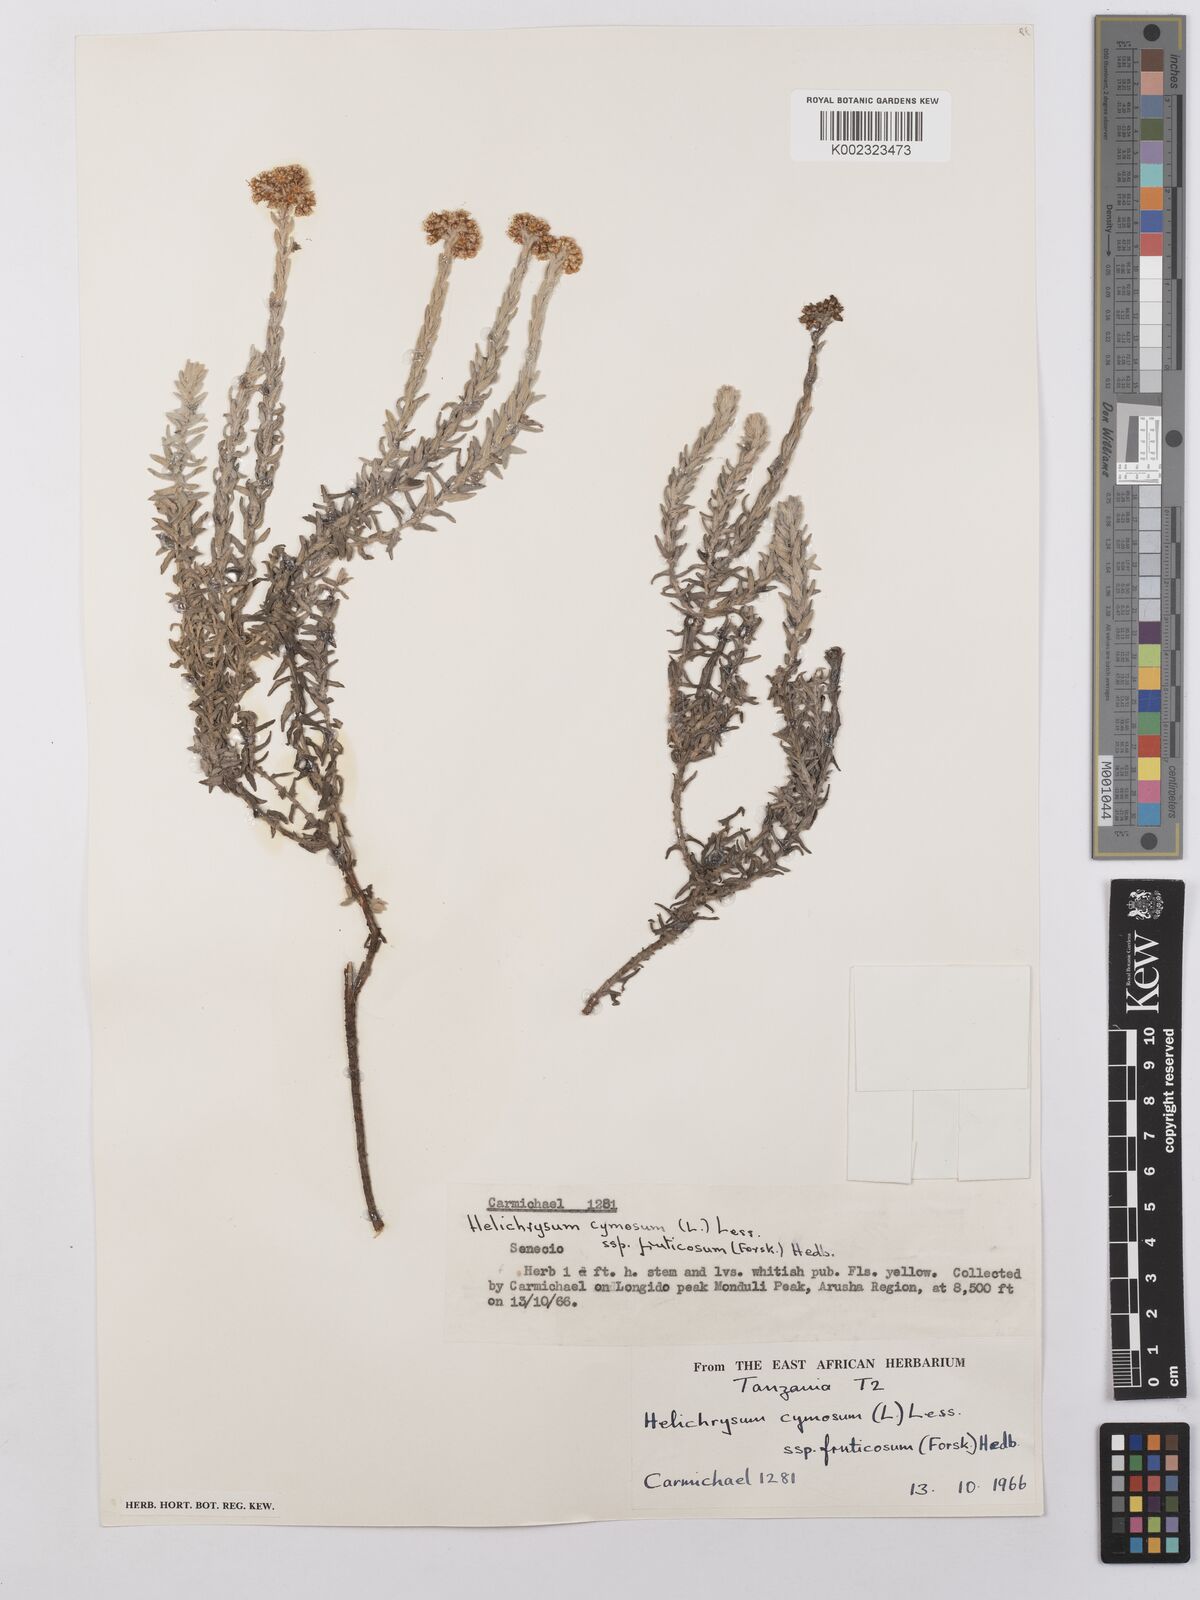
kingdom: Plantae
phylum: Tracheophyta
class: Magnoliopsida
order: Asterales
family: Asteraceae
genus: Helichrysum
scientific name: Helichrysum forskahlii
